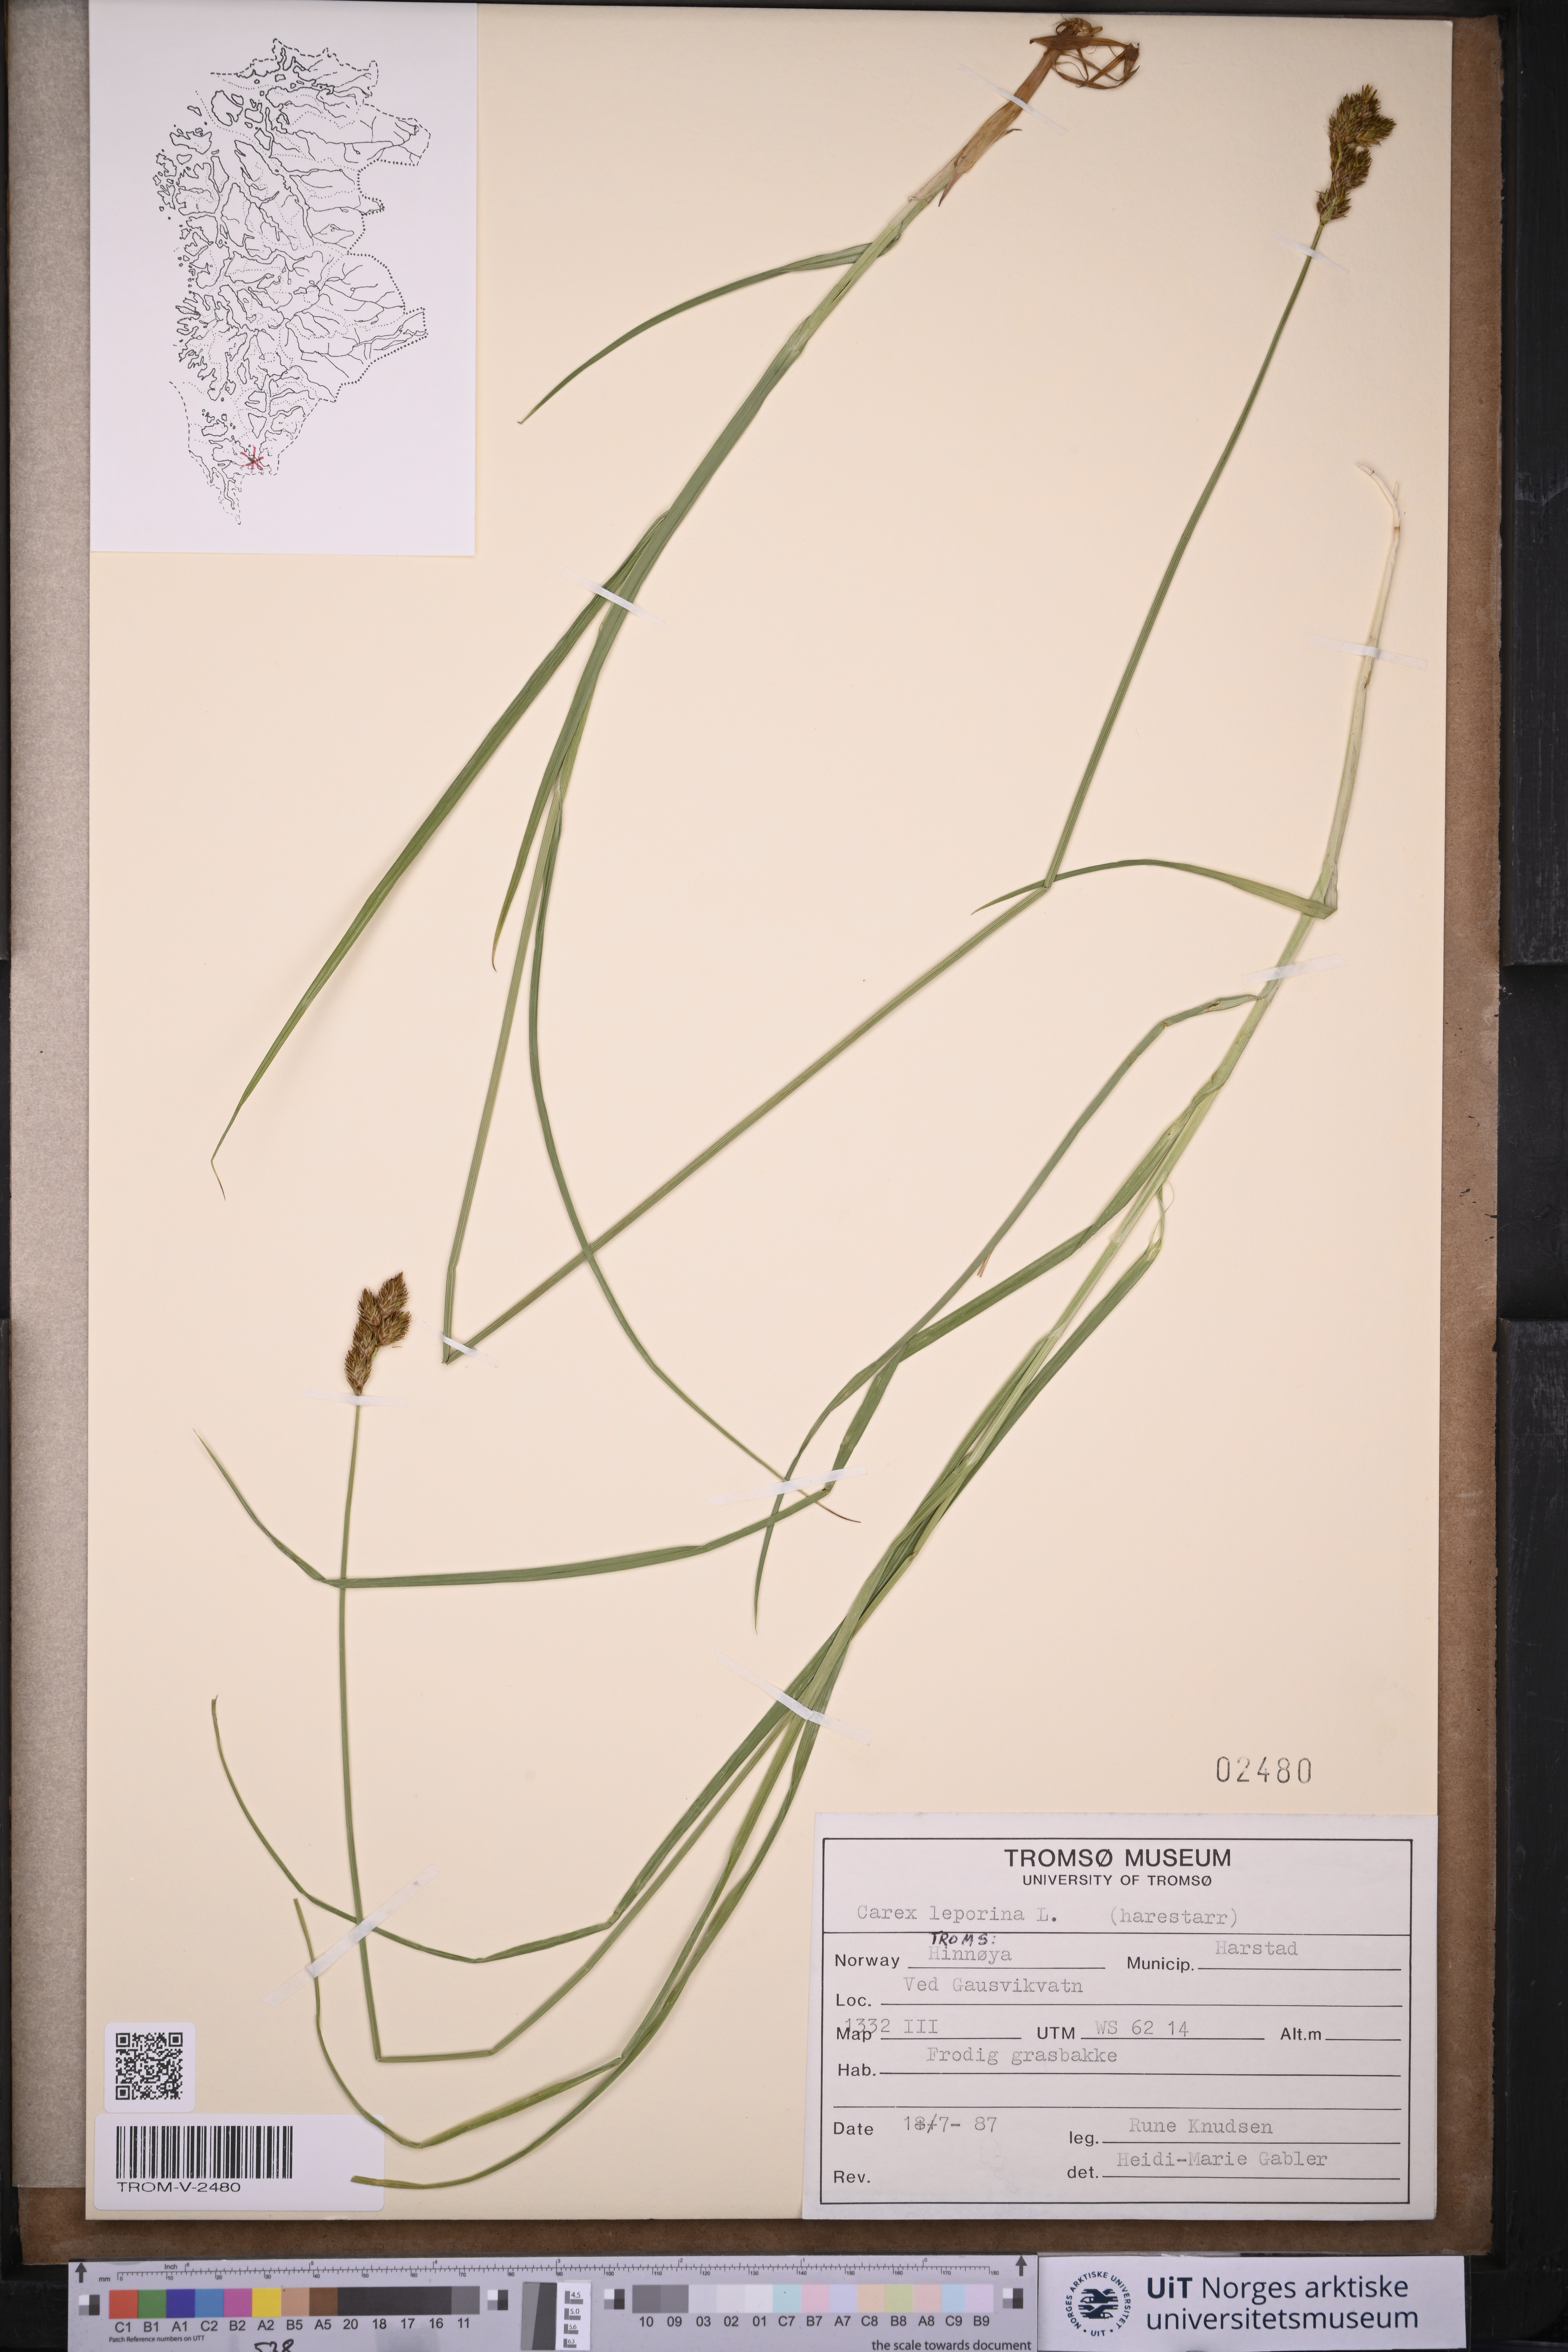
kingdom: Plantae
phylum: Tracheophyta
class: Liliopsida
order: Poales
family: Cyperaceae
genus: Carex
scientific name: Carex leporina
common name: Oval sedge
